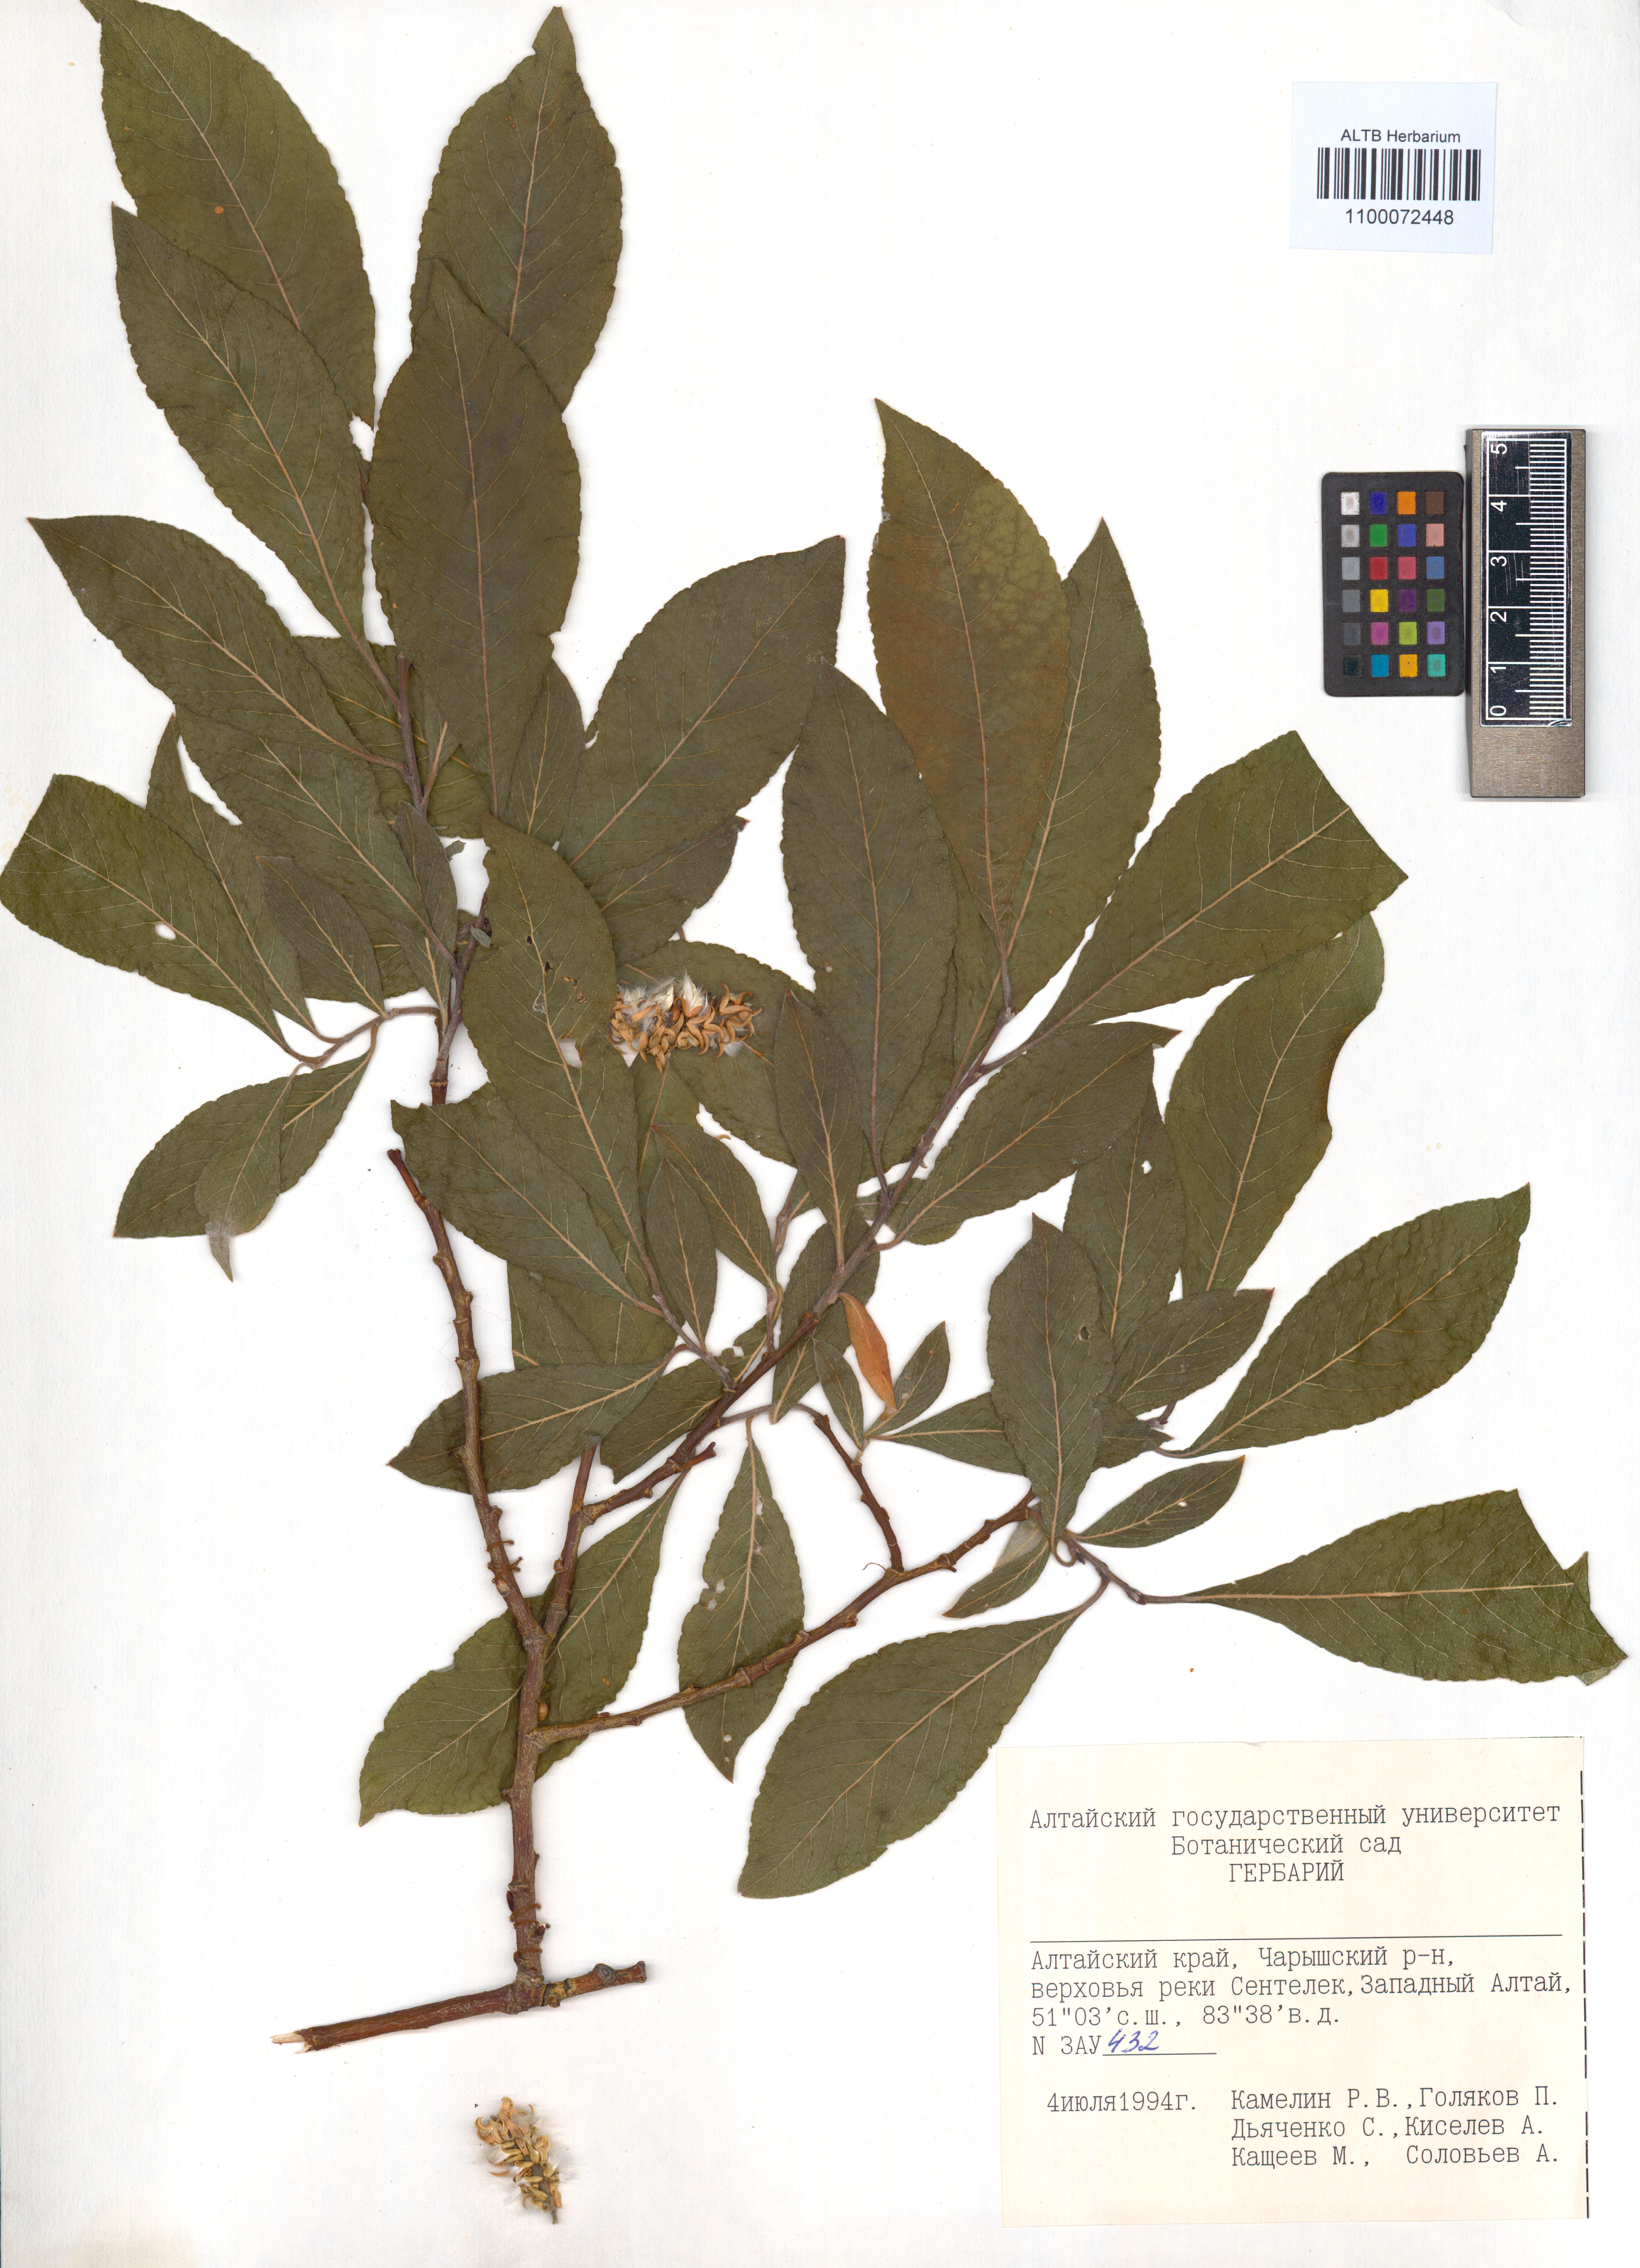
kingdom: Plantae
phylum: Tracheophyta
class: Magnoliopsida
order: Malpighiales
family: Salicaceae
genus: Salix
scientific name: Salix caprea
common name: Goat willow
